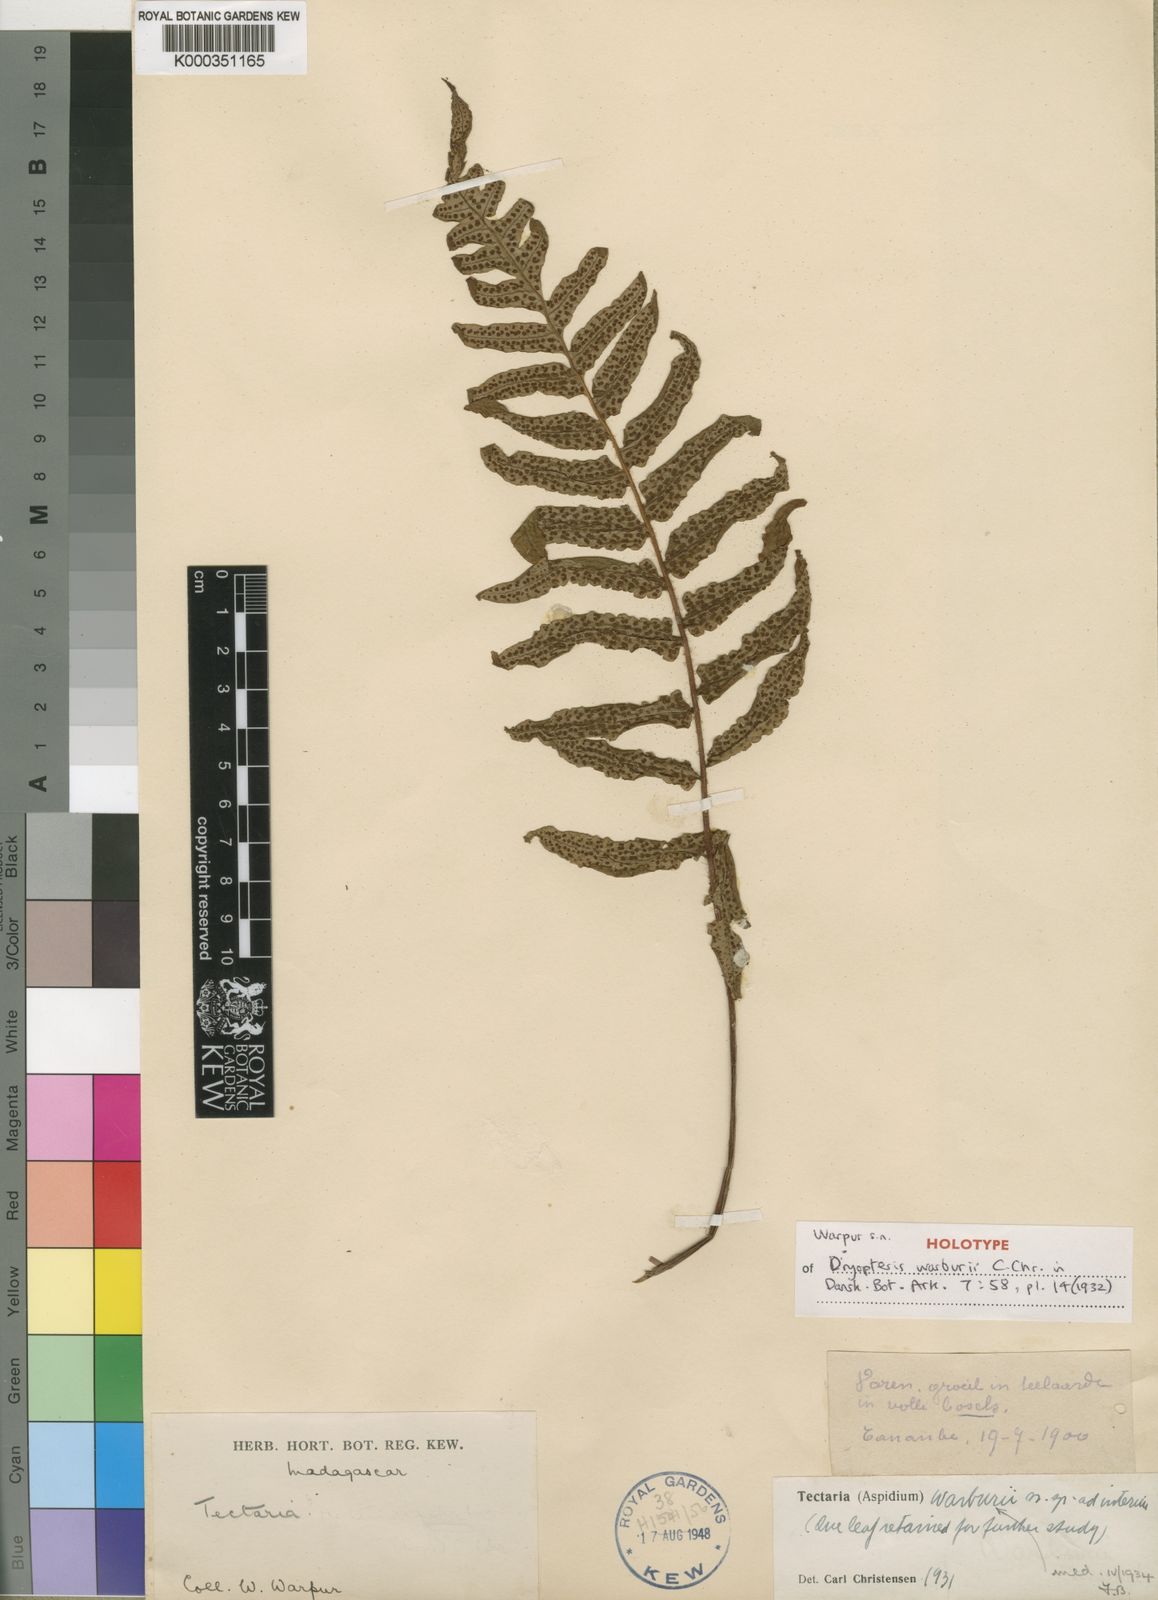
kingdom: Plantae
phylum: Tracheophyta
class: Polypodiopsida
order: Polypodiales
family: Dryopteridaceae
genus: Ctenitis
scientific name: Ctenitis warburii
